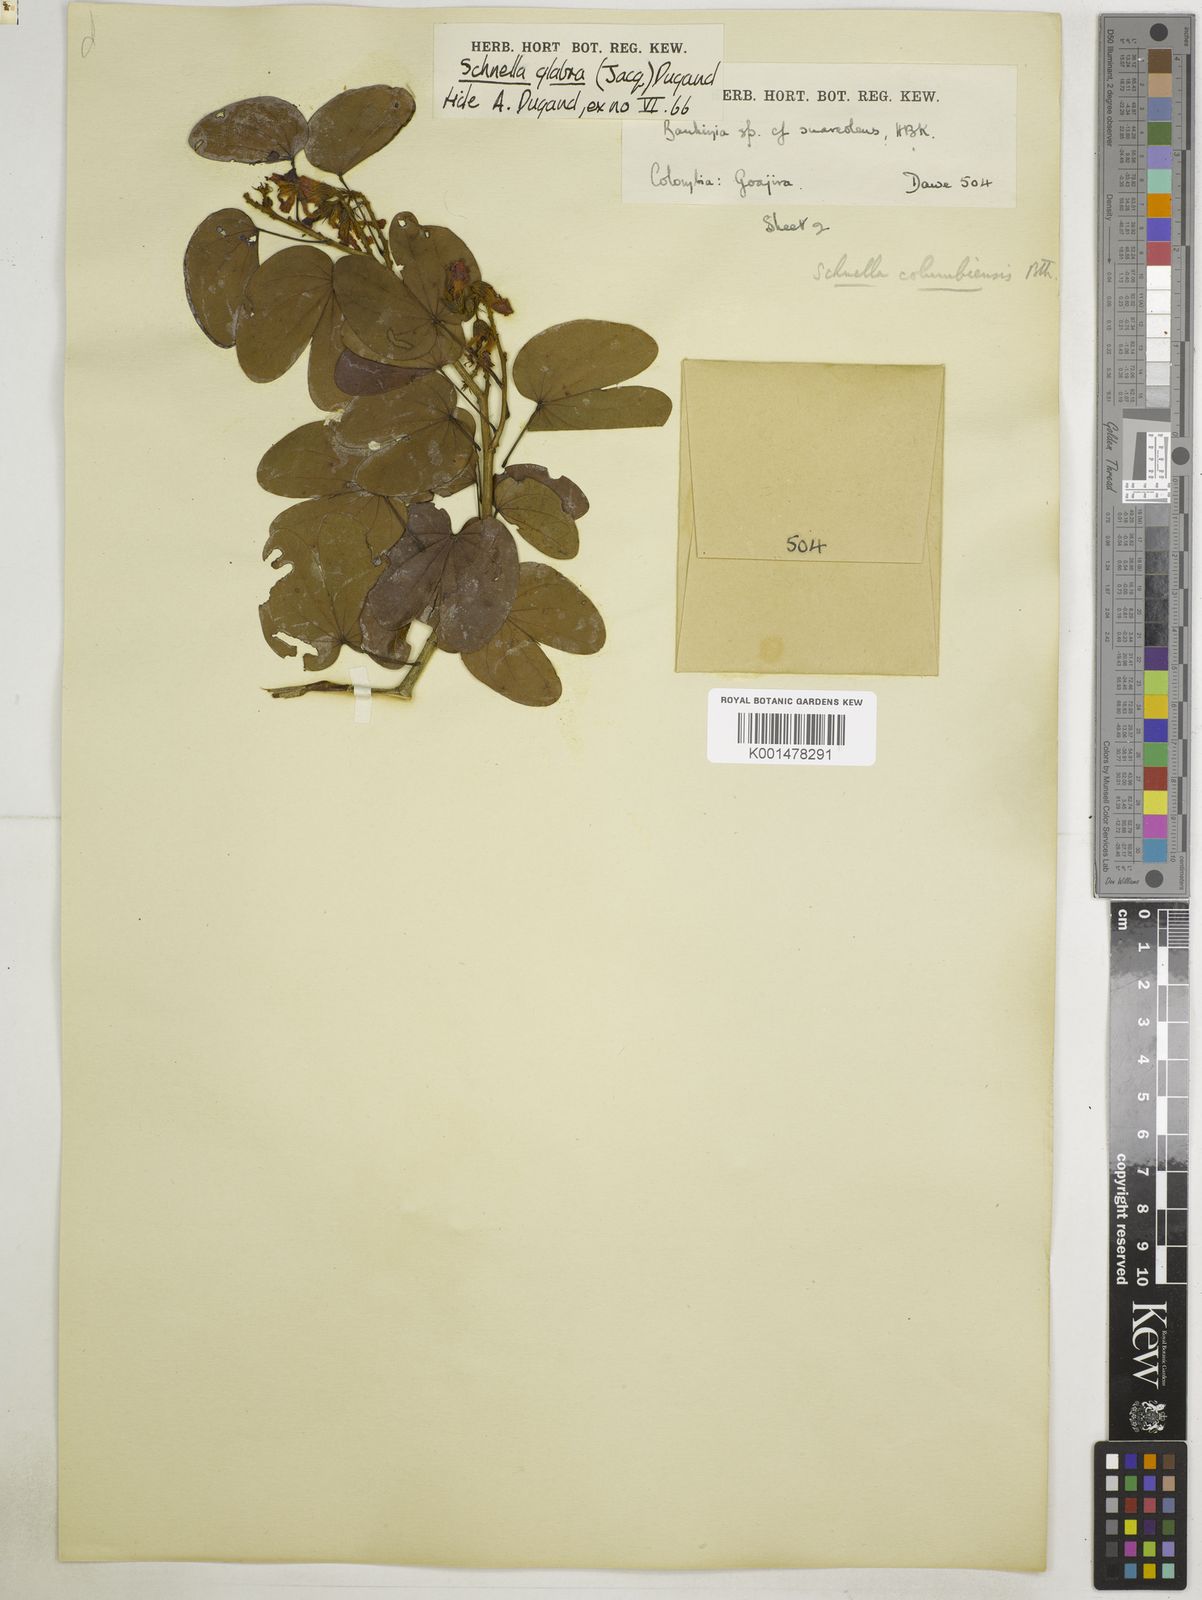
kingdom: Plantae
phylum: Tracheophyta
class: Magnoliopsida
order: Fabales
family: Fabaceae
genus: Schnella
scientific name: Schnella glabra
